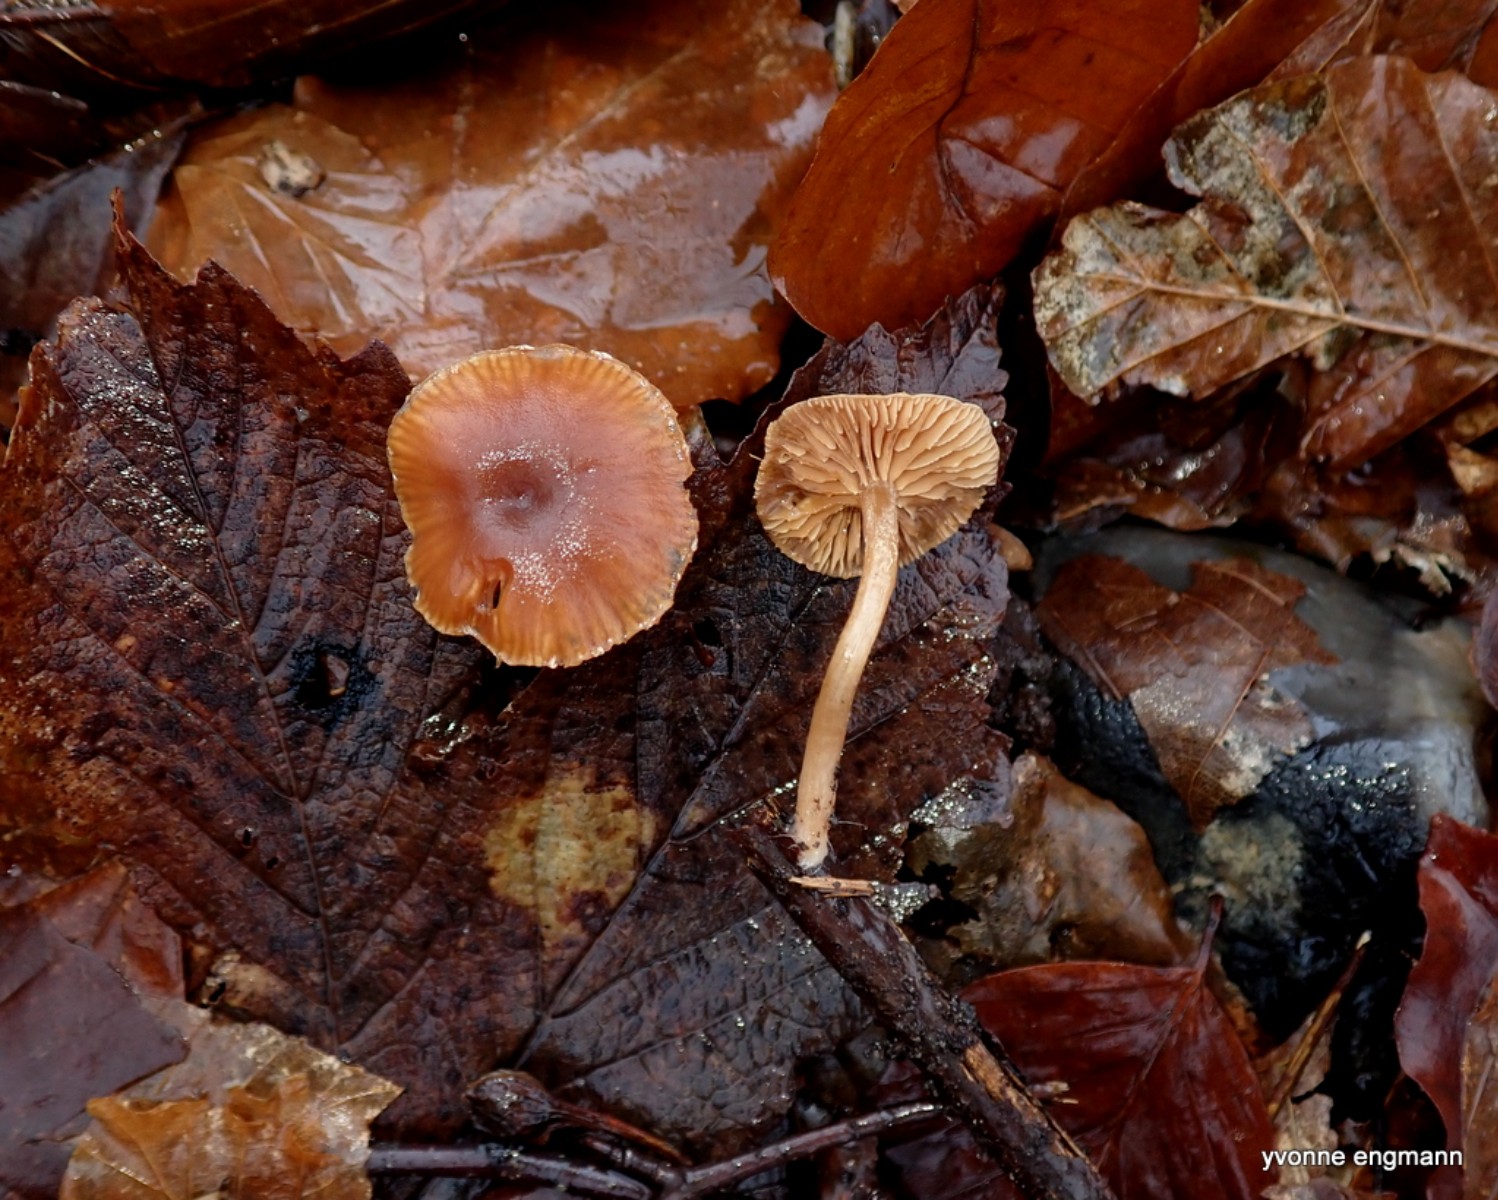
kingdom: Fungi
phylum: Basidiomycota
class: Agaricomycetes
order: Agaricales
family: Tubariaceae
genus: Tubaria
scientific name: Tubaria furfuracea
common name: kliddet fnughat
